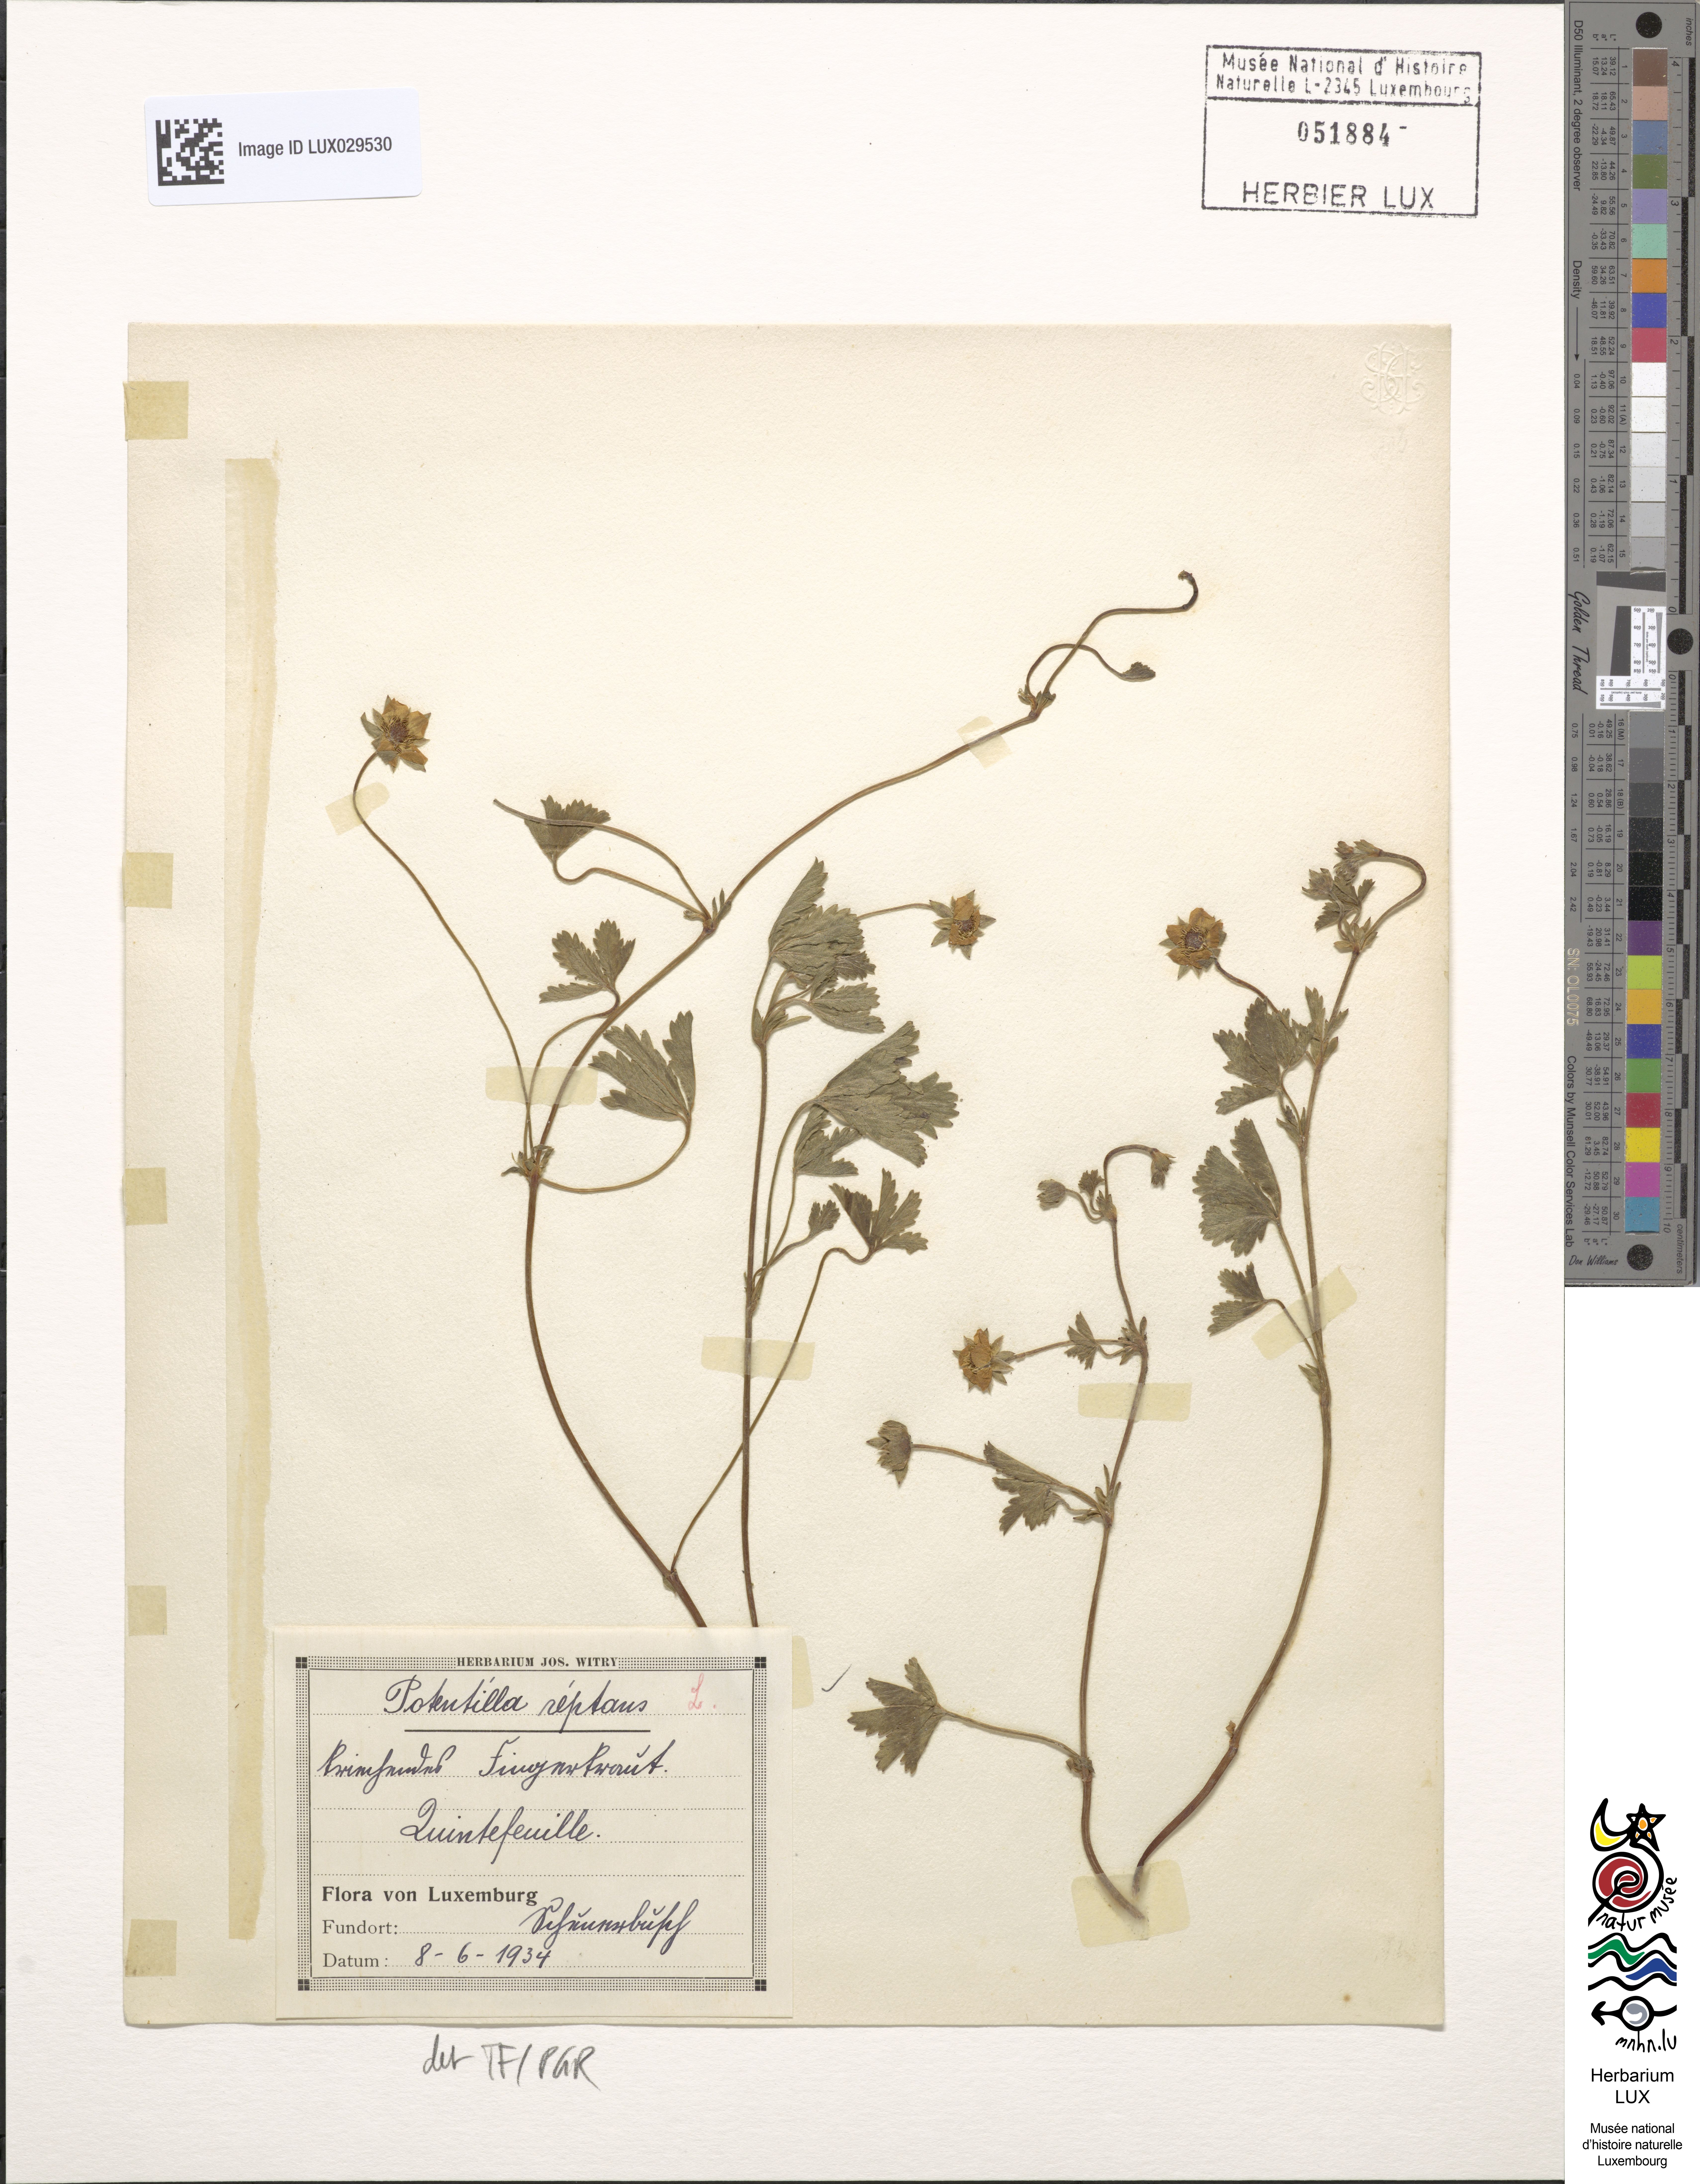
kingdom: Plantae
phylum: Tracheophyta
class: Magnoliopsida
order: Rosales
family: Rosaceae
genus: Potentilla
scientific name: Potentilla reptans
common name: Creeping cinquefoil
